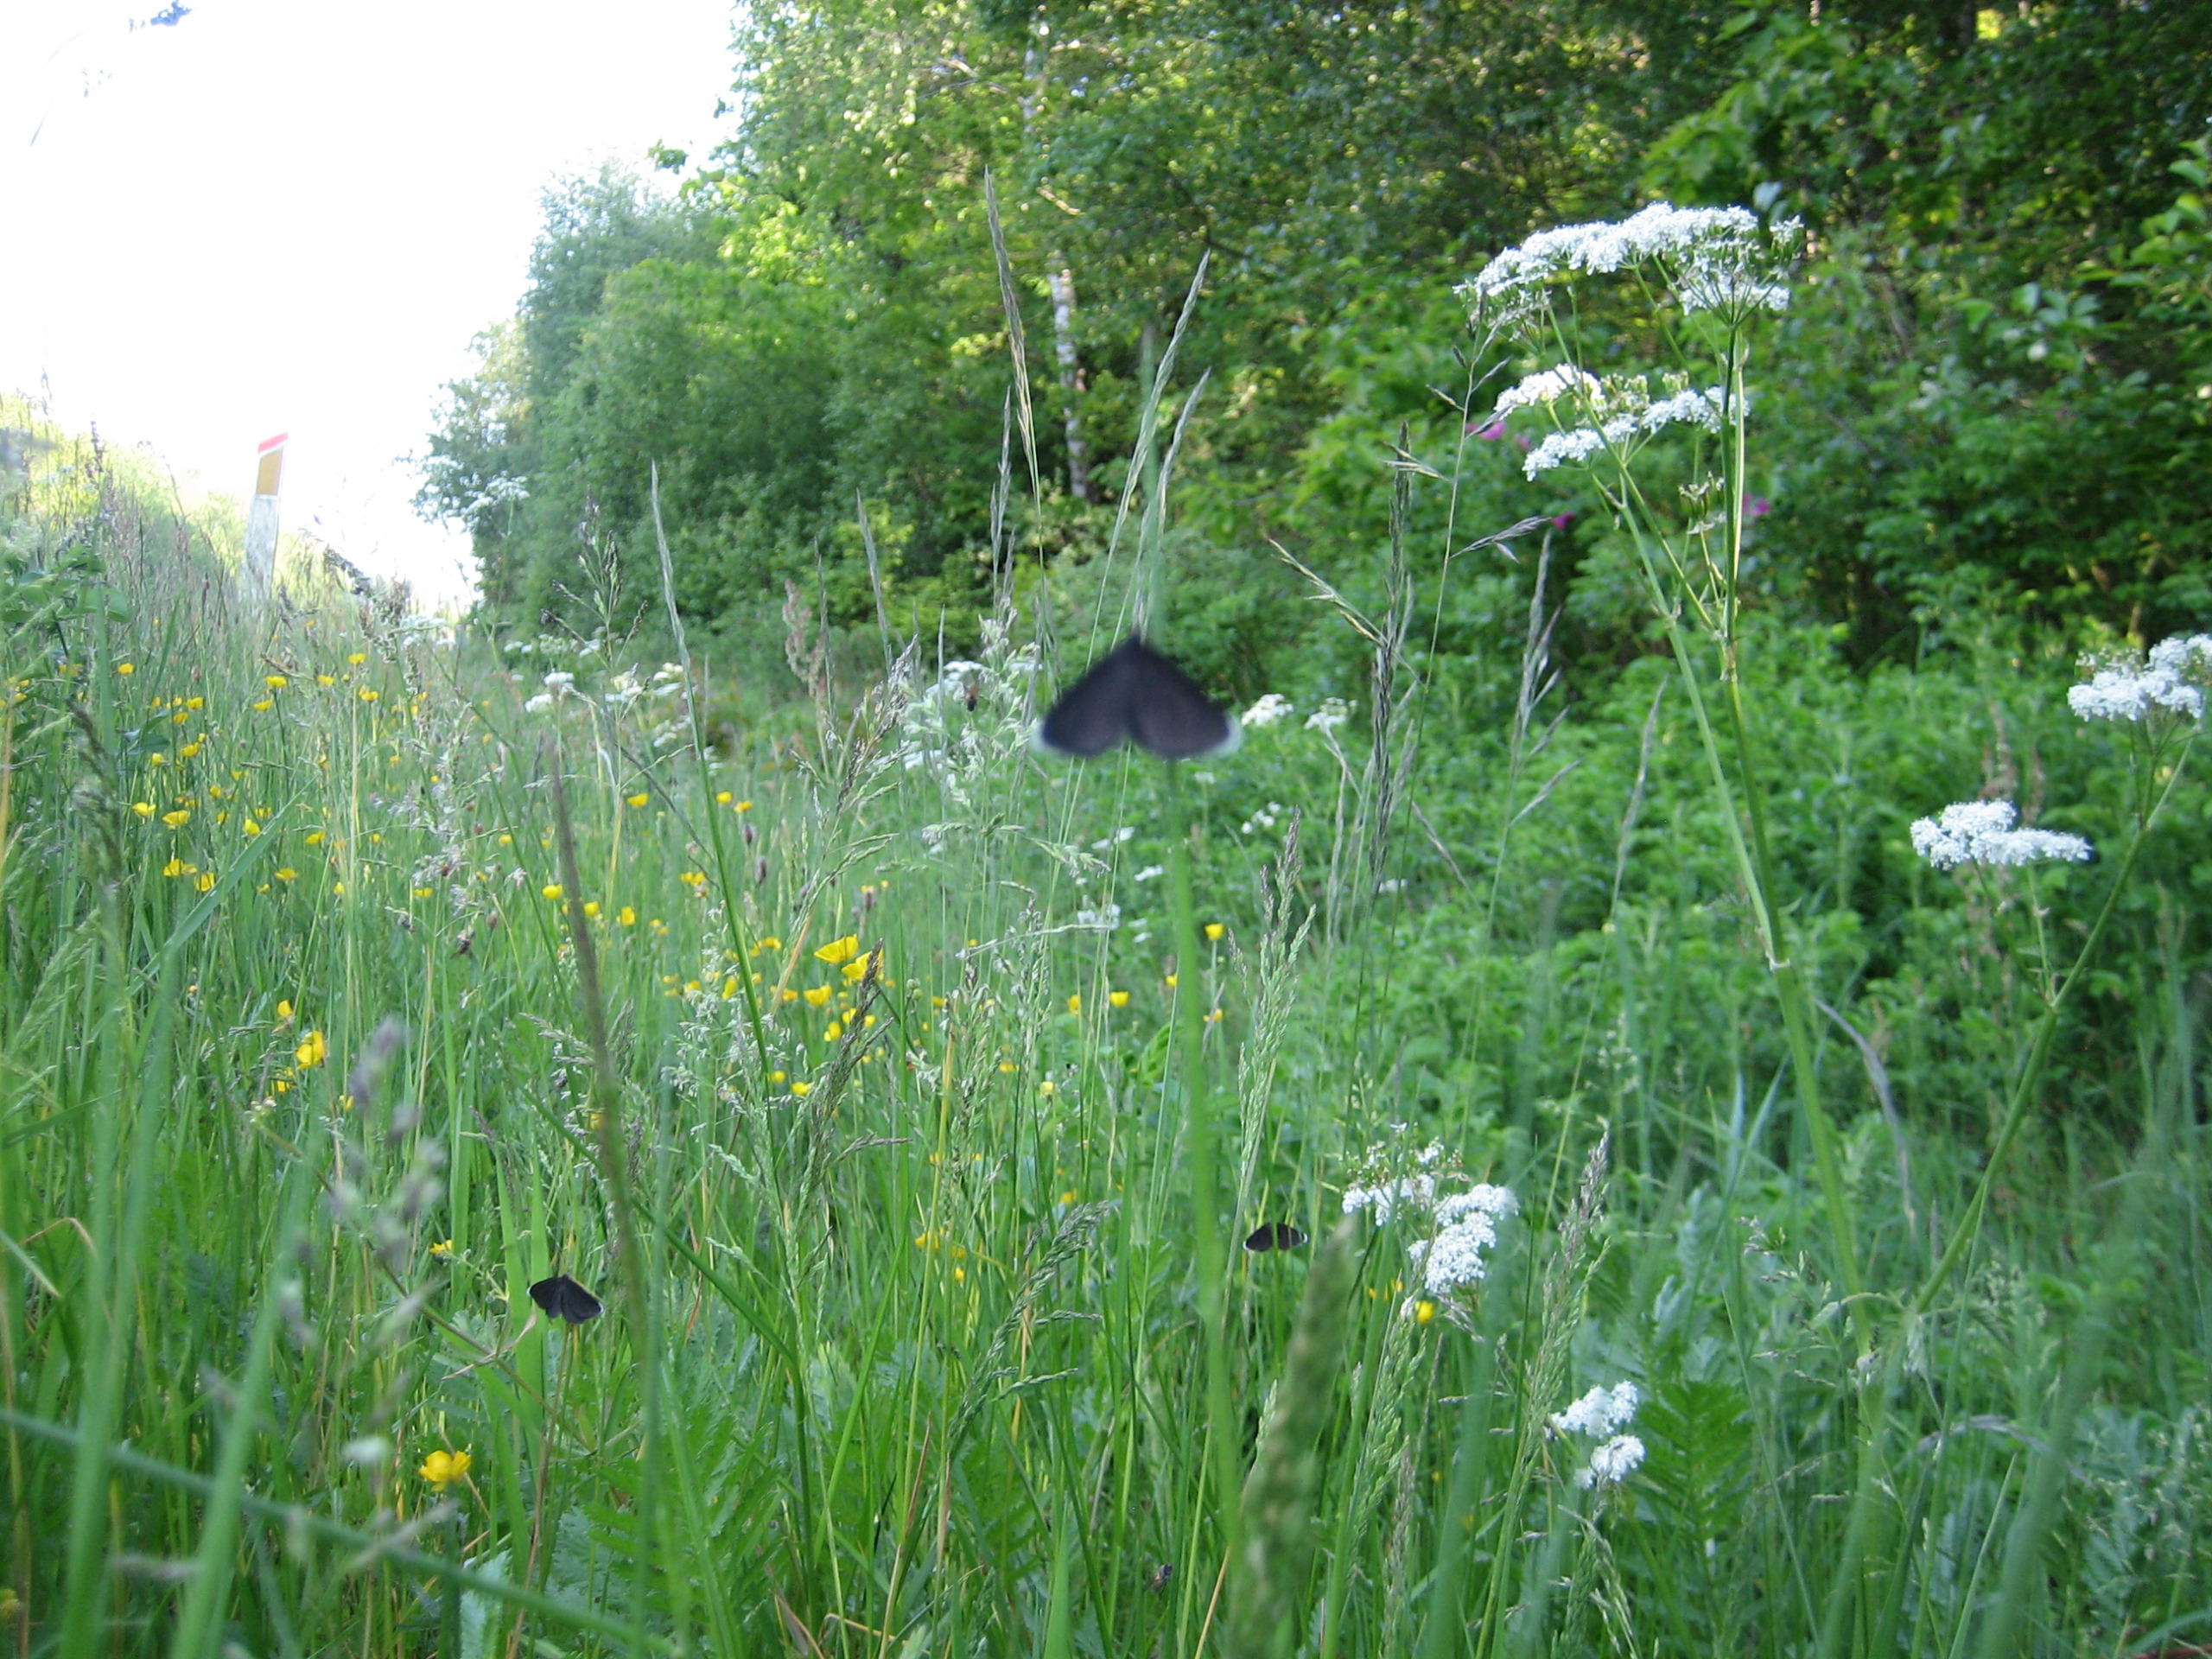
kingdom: Animalia
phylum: Arthropoda
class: Insecta
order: Lepidoptera
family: Geometridae
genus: Odezia
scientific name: Odezia atrata
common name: Sort måler
